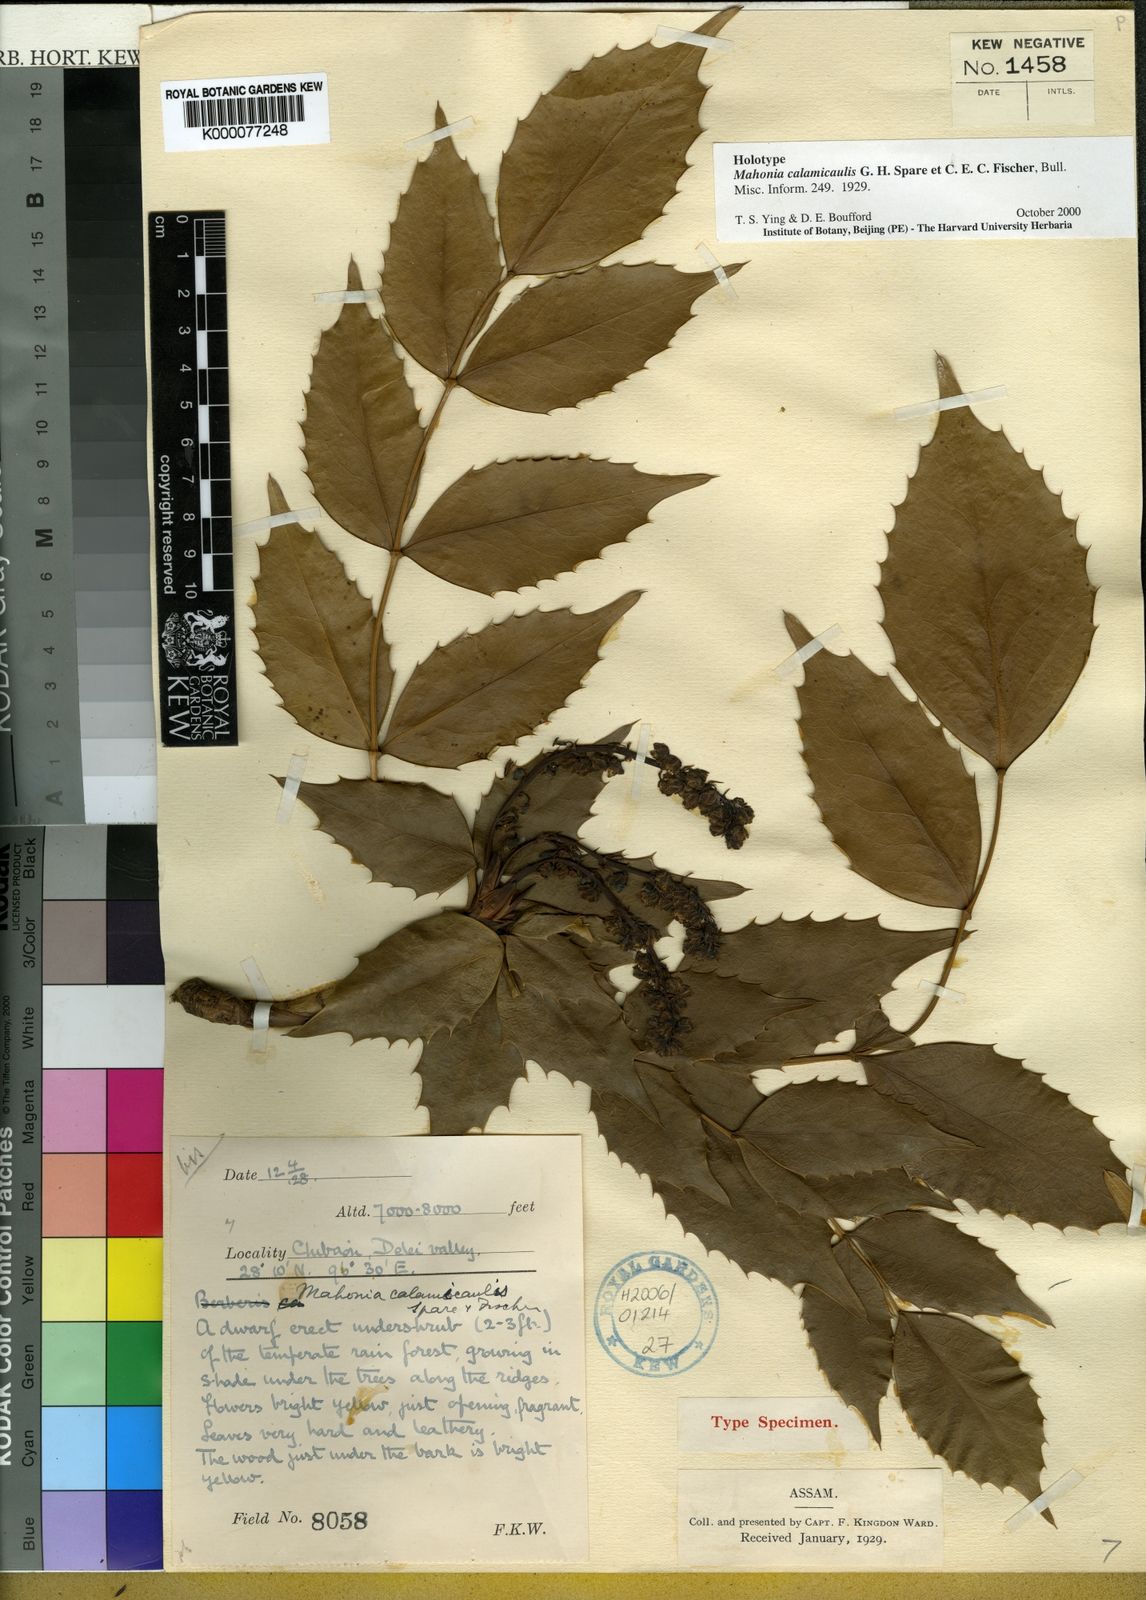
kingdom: Plantae
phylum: Tracheophyta
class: Magnoliopsida
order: Ranunculales
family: Berberidaceae
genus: Mahonia
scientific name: Mahonia calamicaulis
